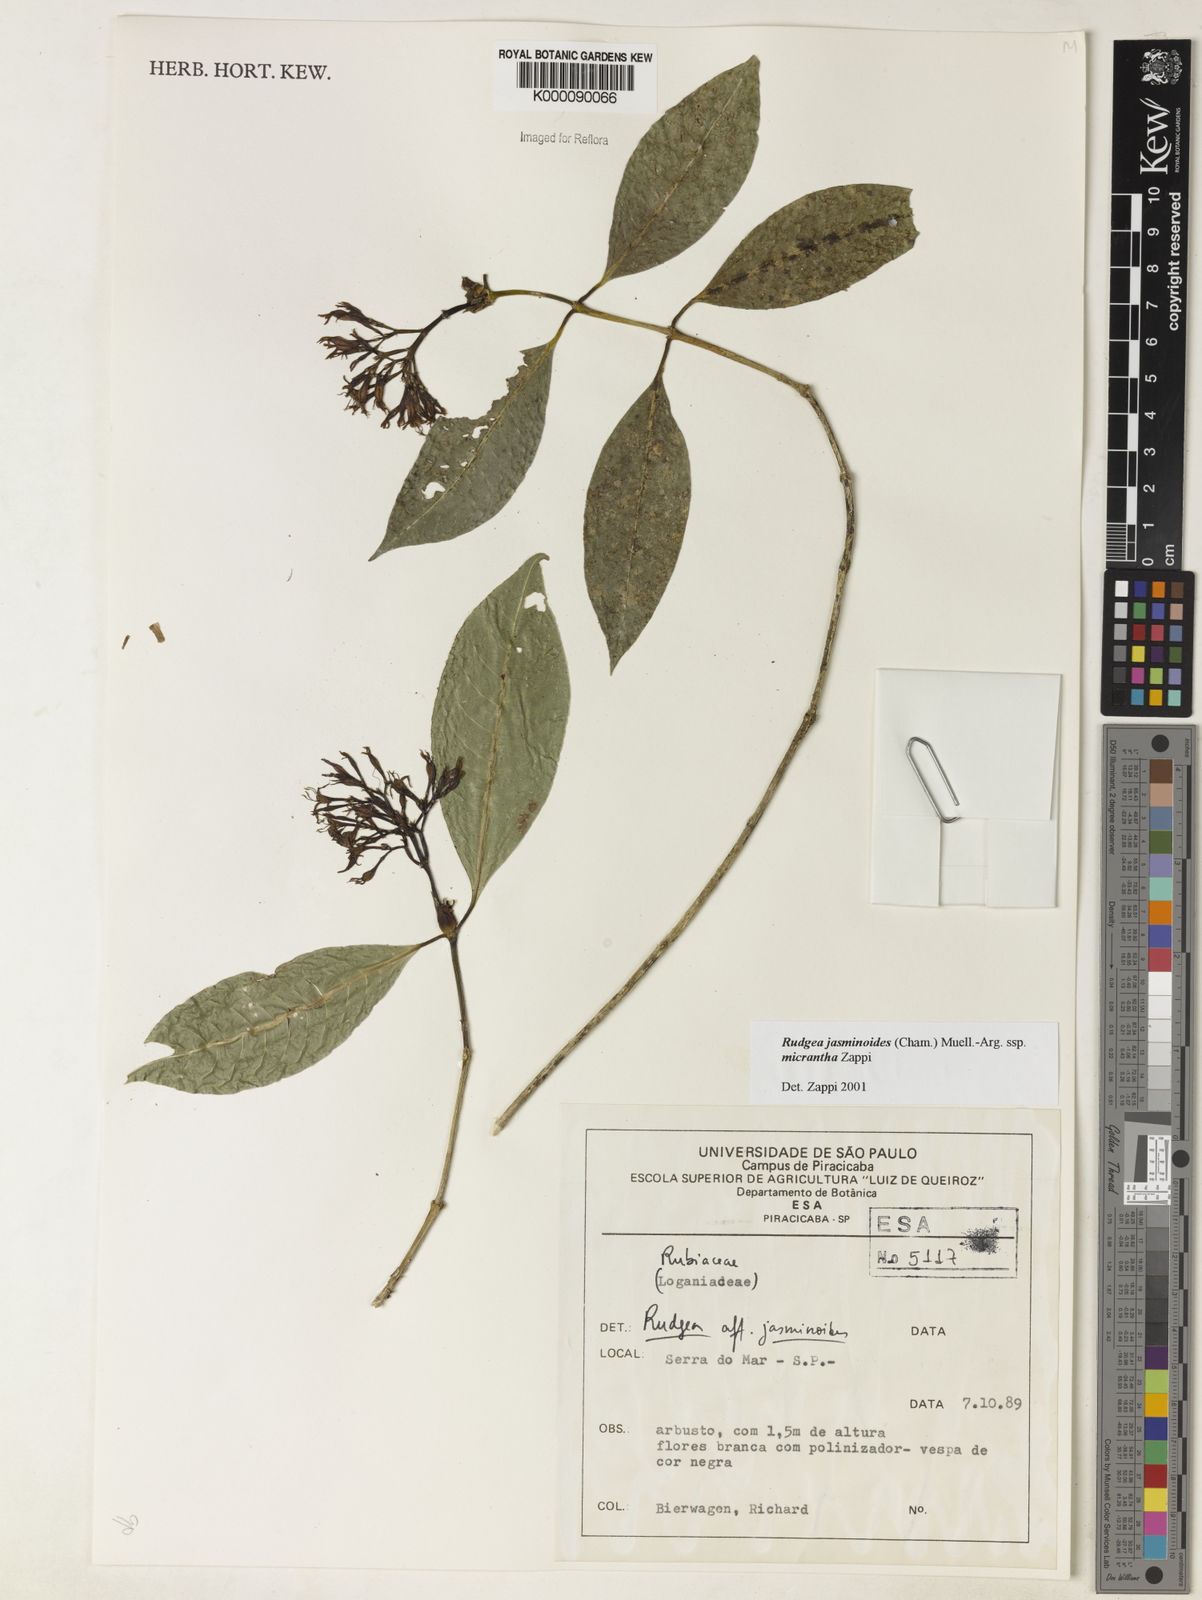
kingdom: Plantae
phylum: Tracheophyta
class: Magnoliopsida
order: Gentianales
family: Rubiaceae
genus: Rudgea
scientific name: Rudgea jasminoides
